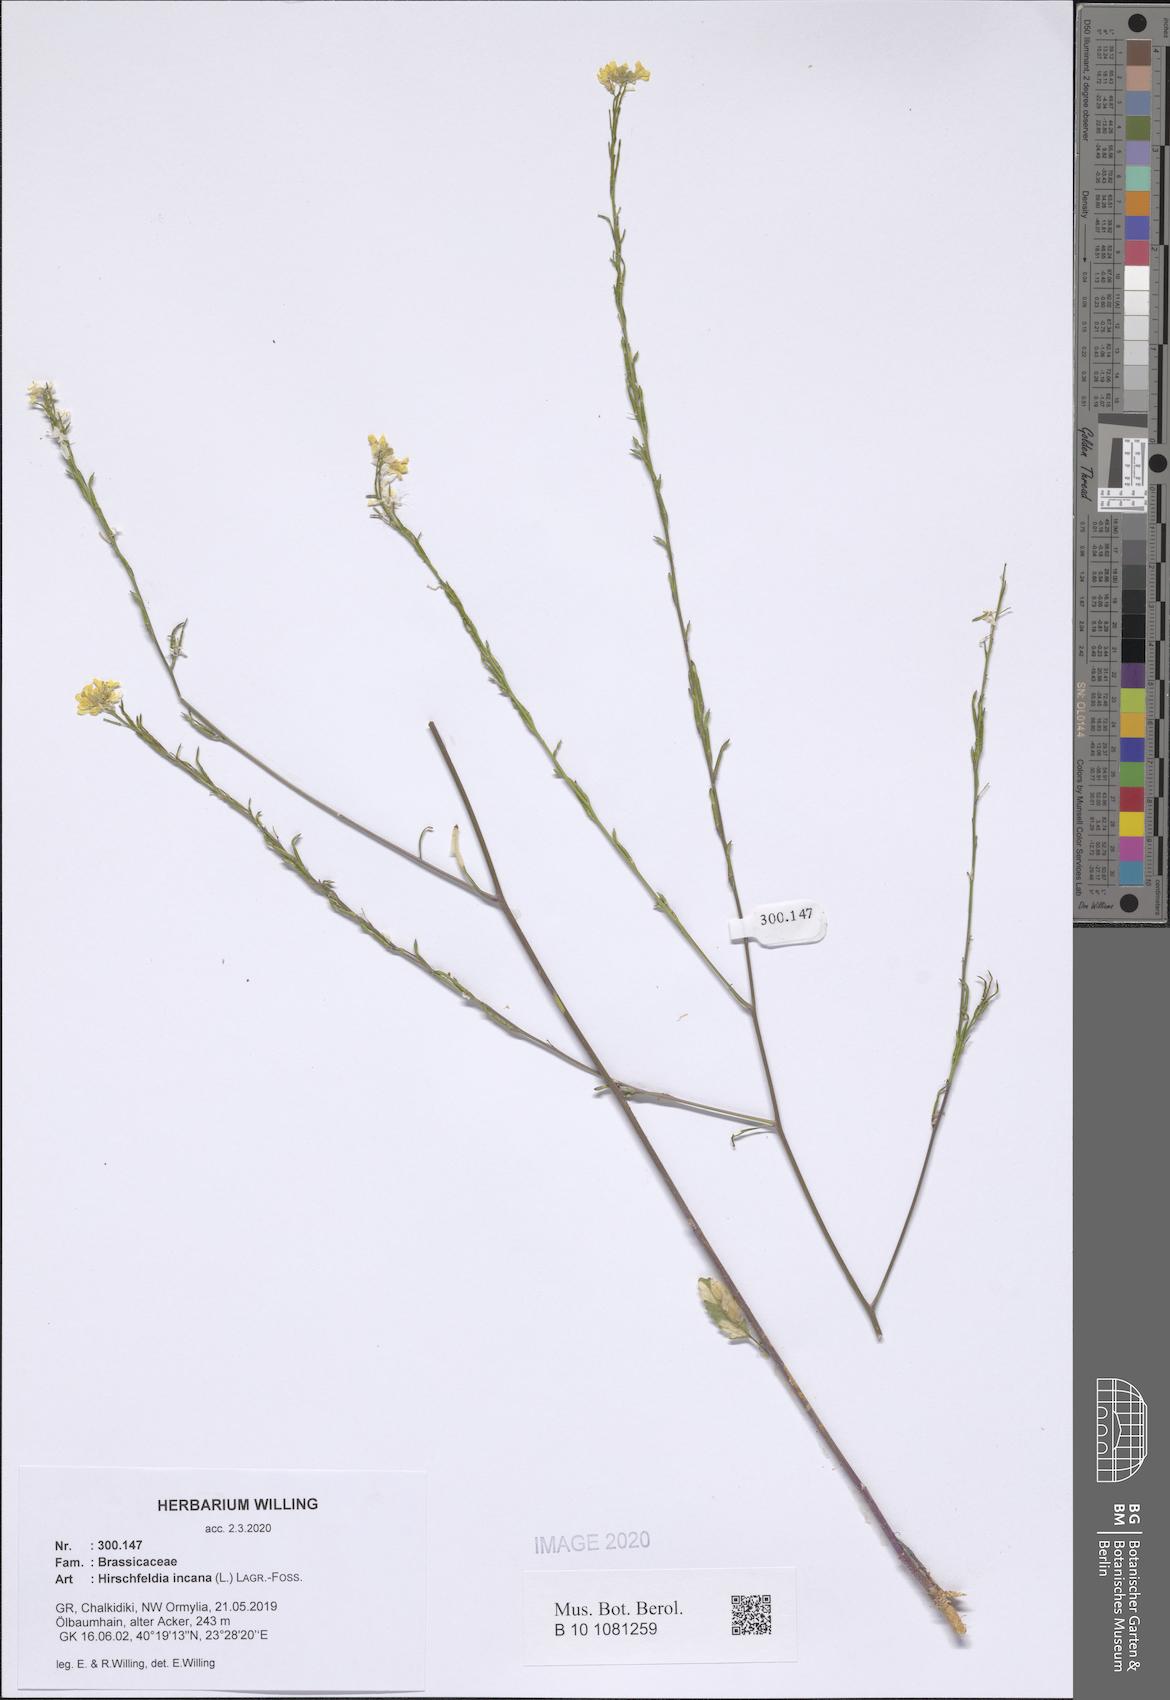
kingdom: Plantae
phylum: Tracheophyta
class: Magnoliopsida
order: Brassicales
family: Brassicaceae
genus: Hirschfeldia
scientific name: Hirschfeldia incana
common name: Hoary mustard
